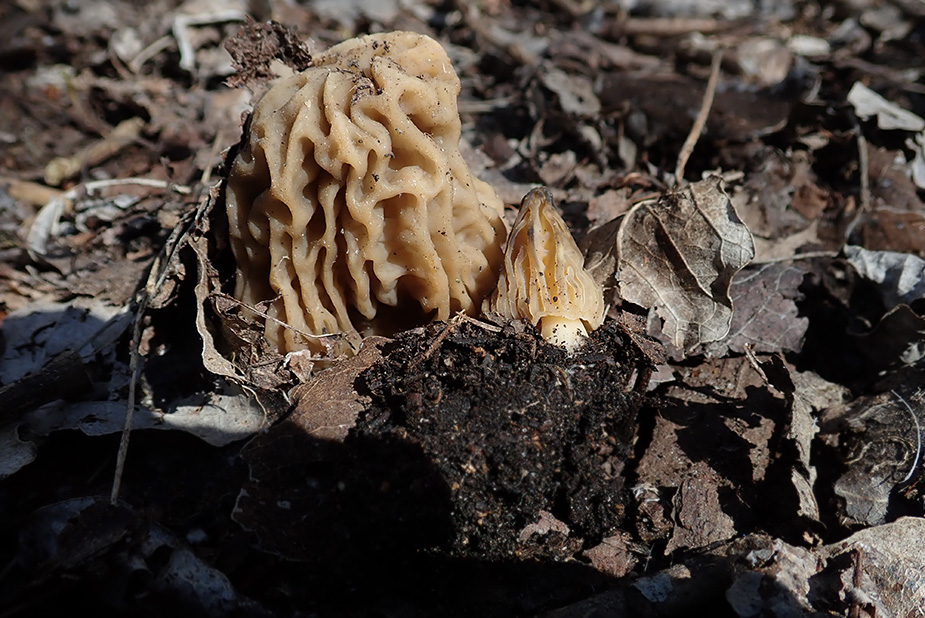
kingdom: Fungi
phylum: Ascomycota
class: Pezizomycetes
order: Pezizales
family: Morchellaceae
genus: Morchella
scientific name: Morchella semilibera
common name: hætte-morkel
